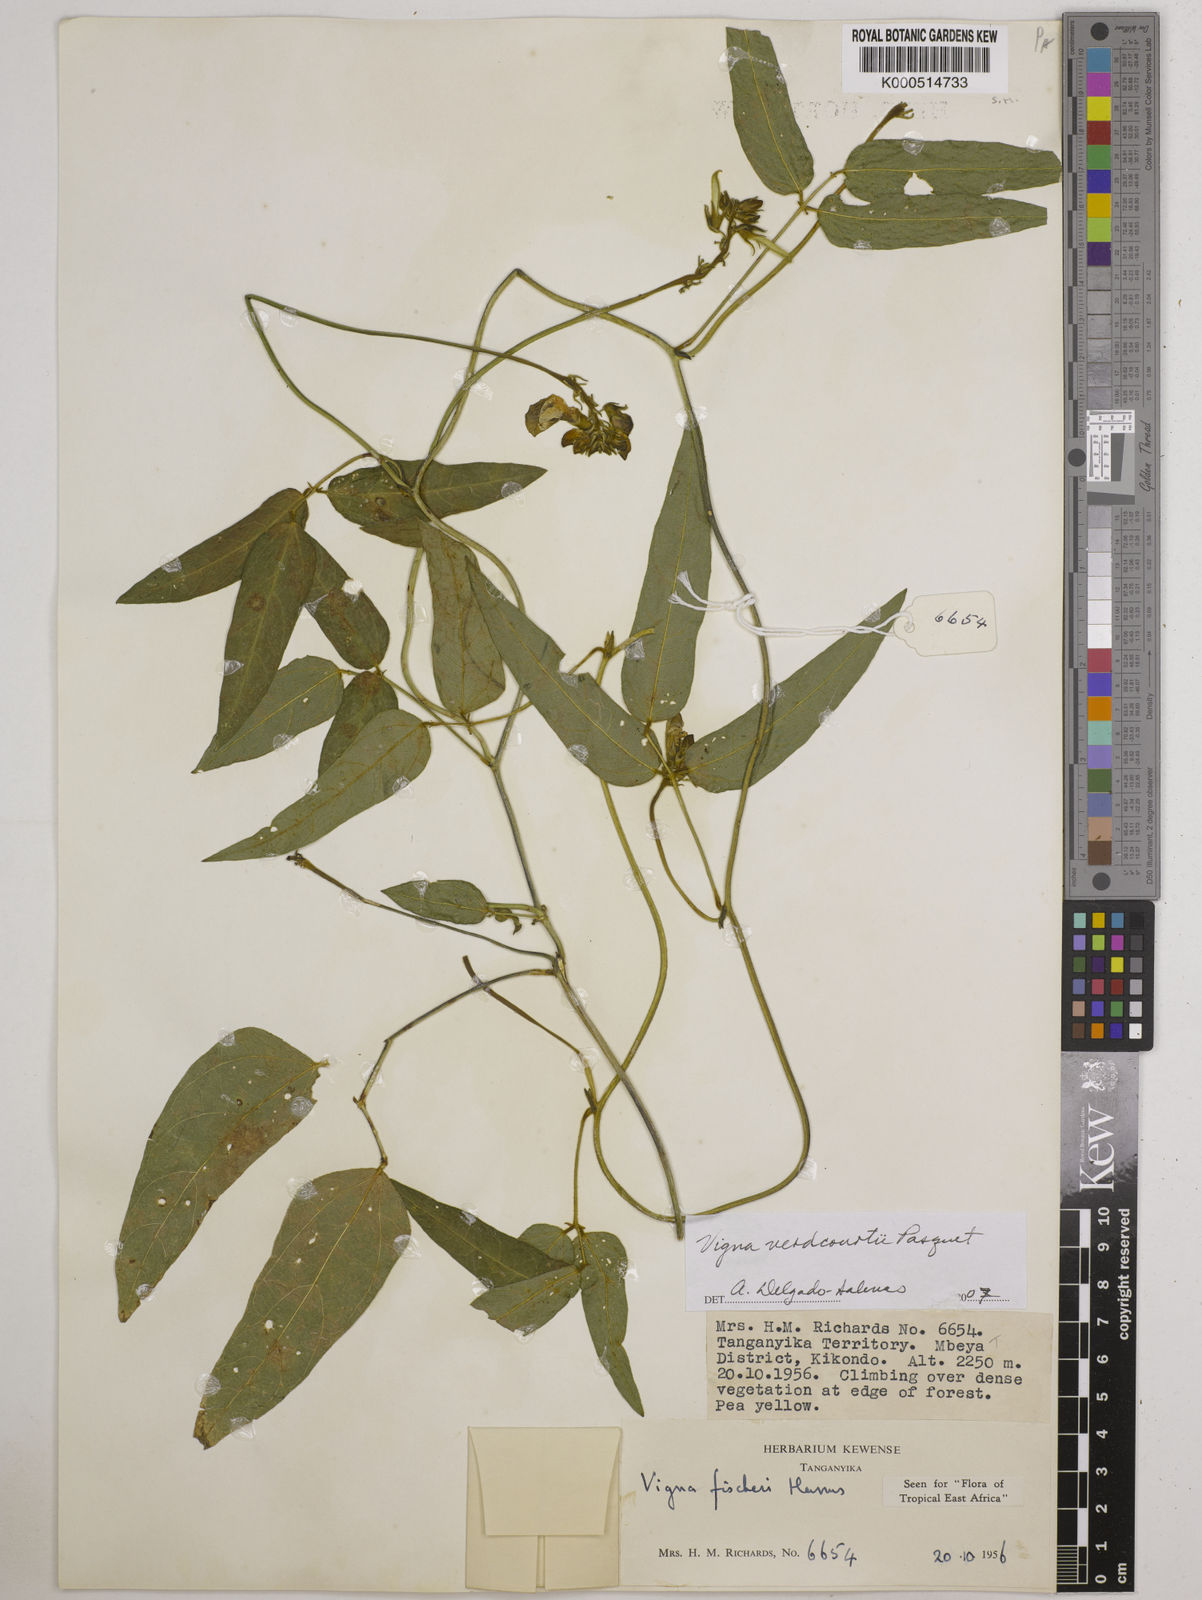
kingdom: Plantae
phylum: Tracheophyta
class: Magnoliopsida
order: Fabales
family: Fabaceae
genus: Vigna
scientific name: Vigna
